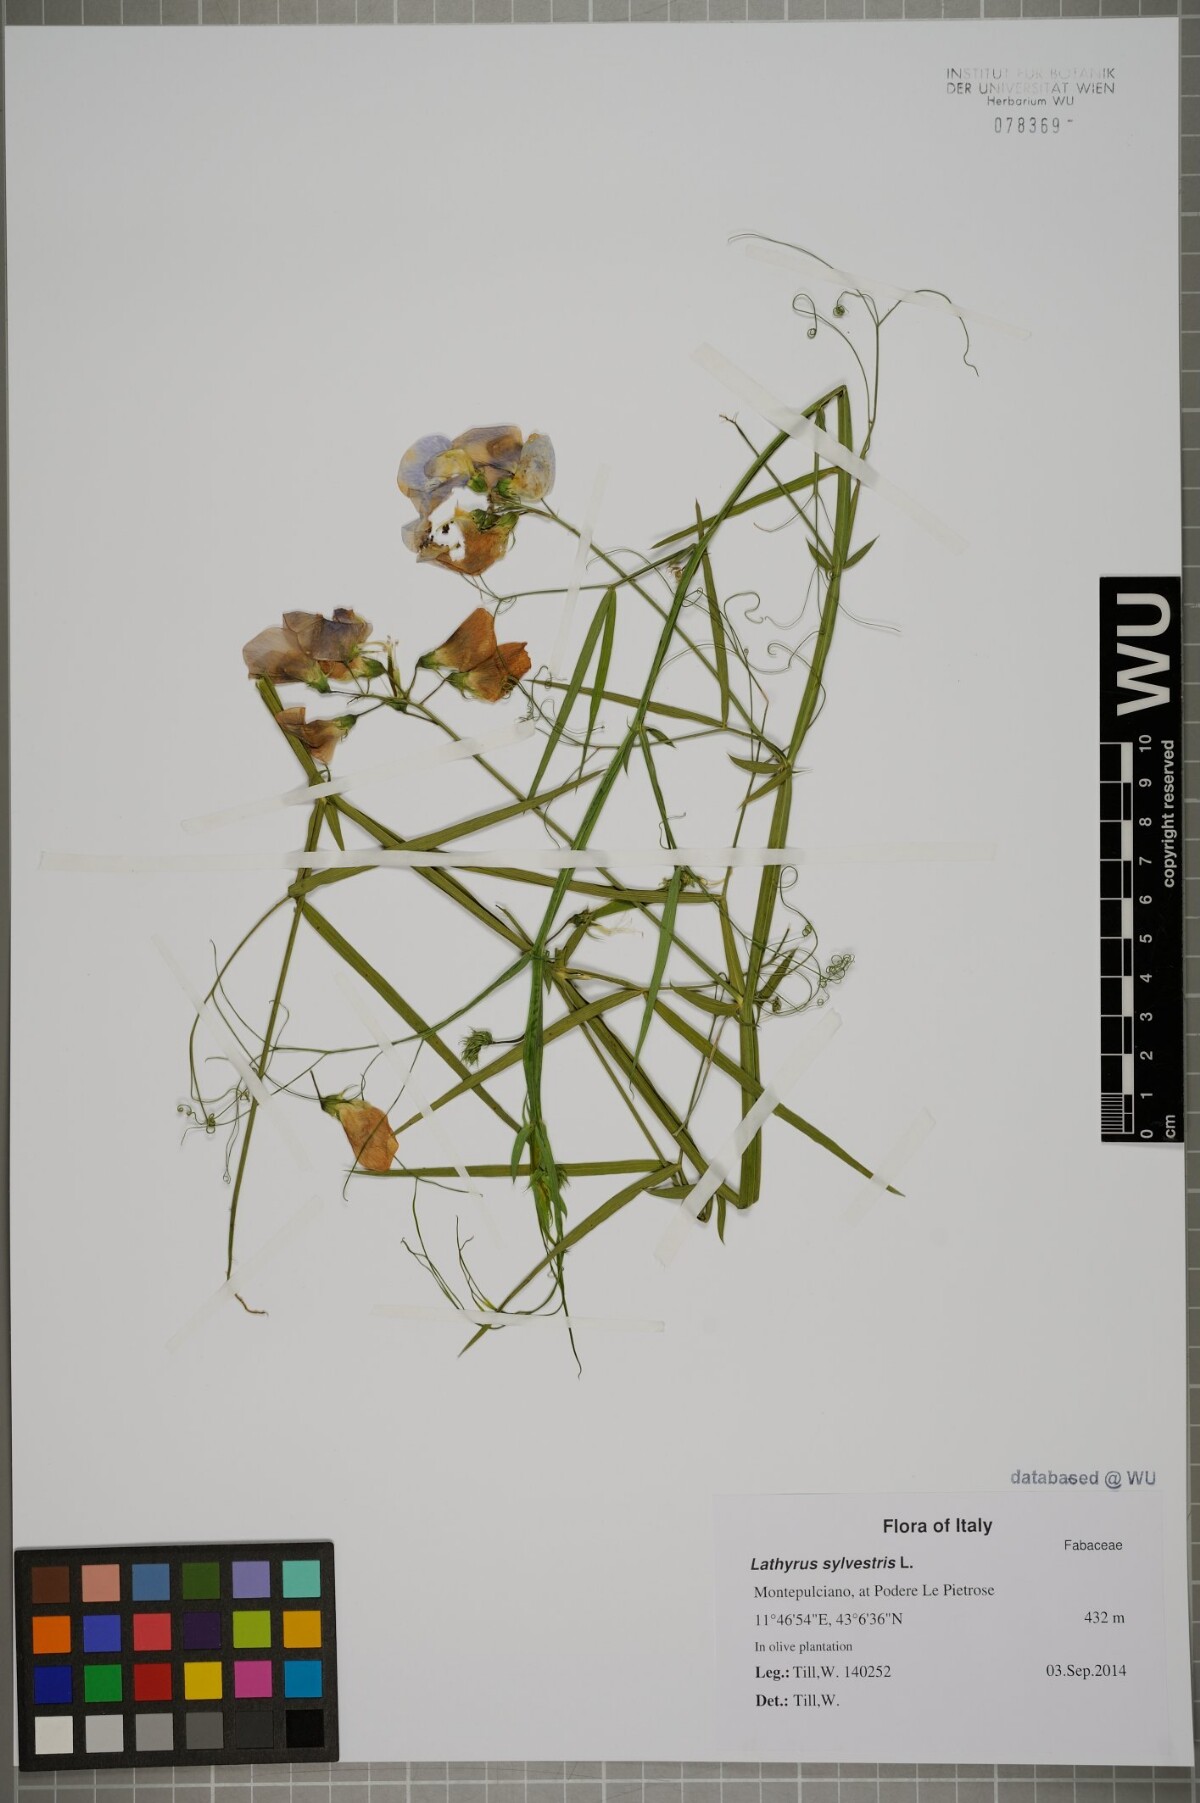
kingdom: Plantae
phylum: Tracheophyta
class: Magnoliopsida
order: Fabales
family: Fabaceae
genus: Lathyrus
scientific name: Lathyrus sylvestris
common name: Flat pea
